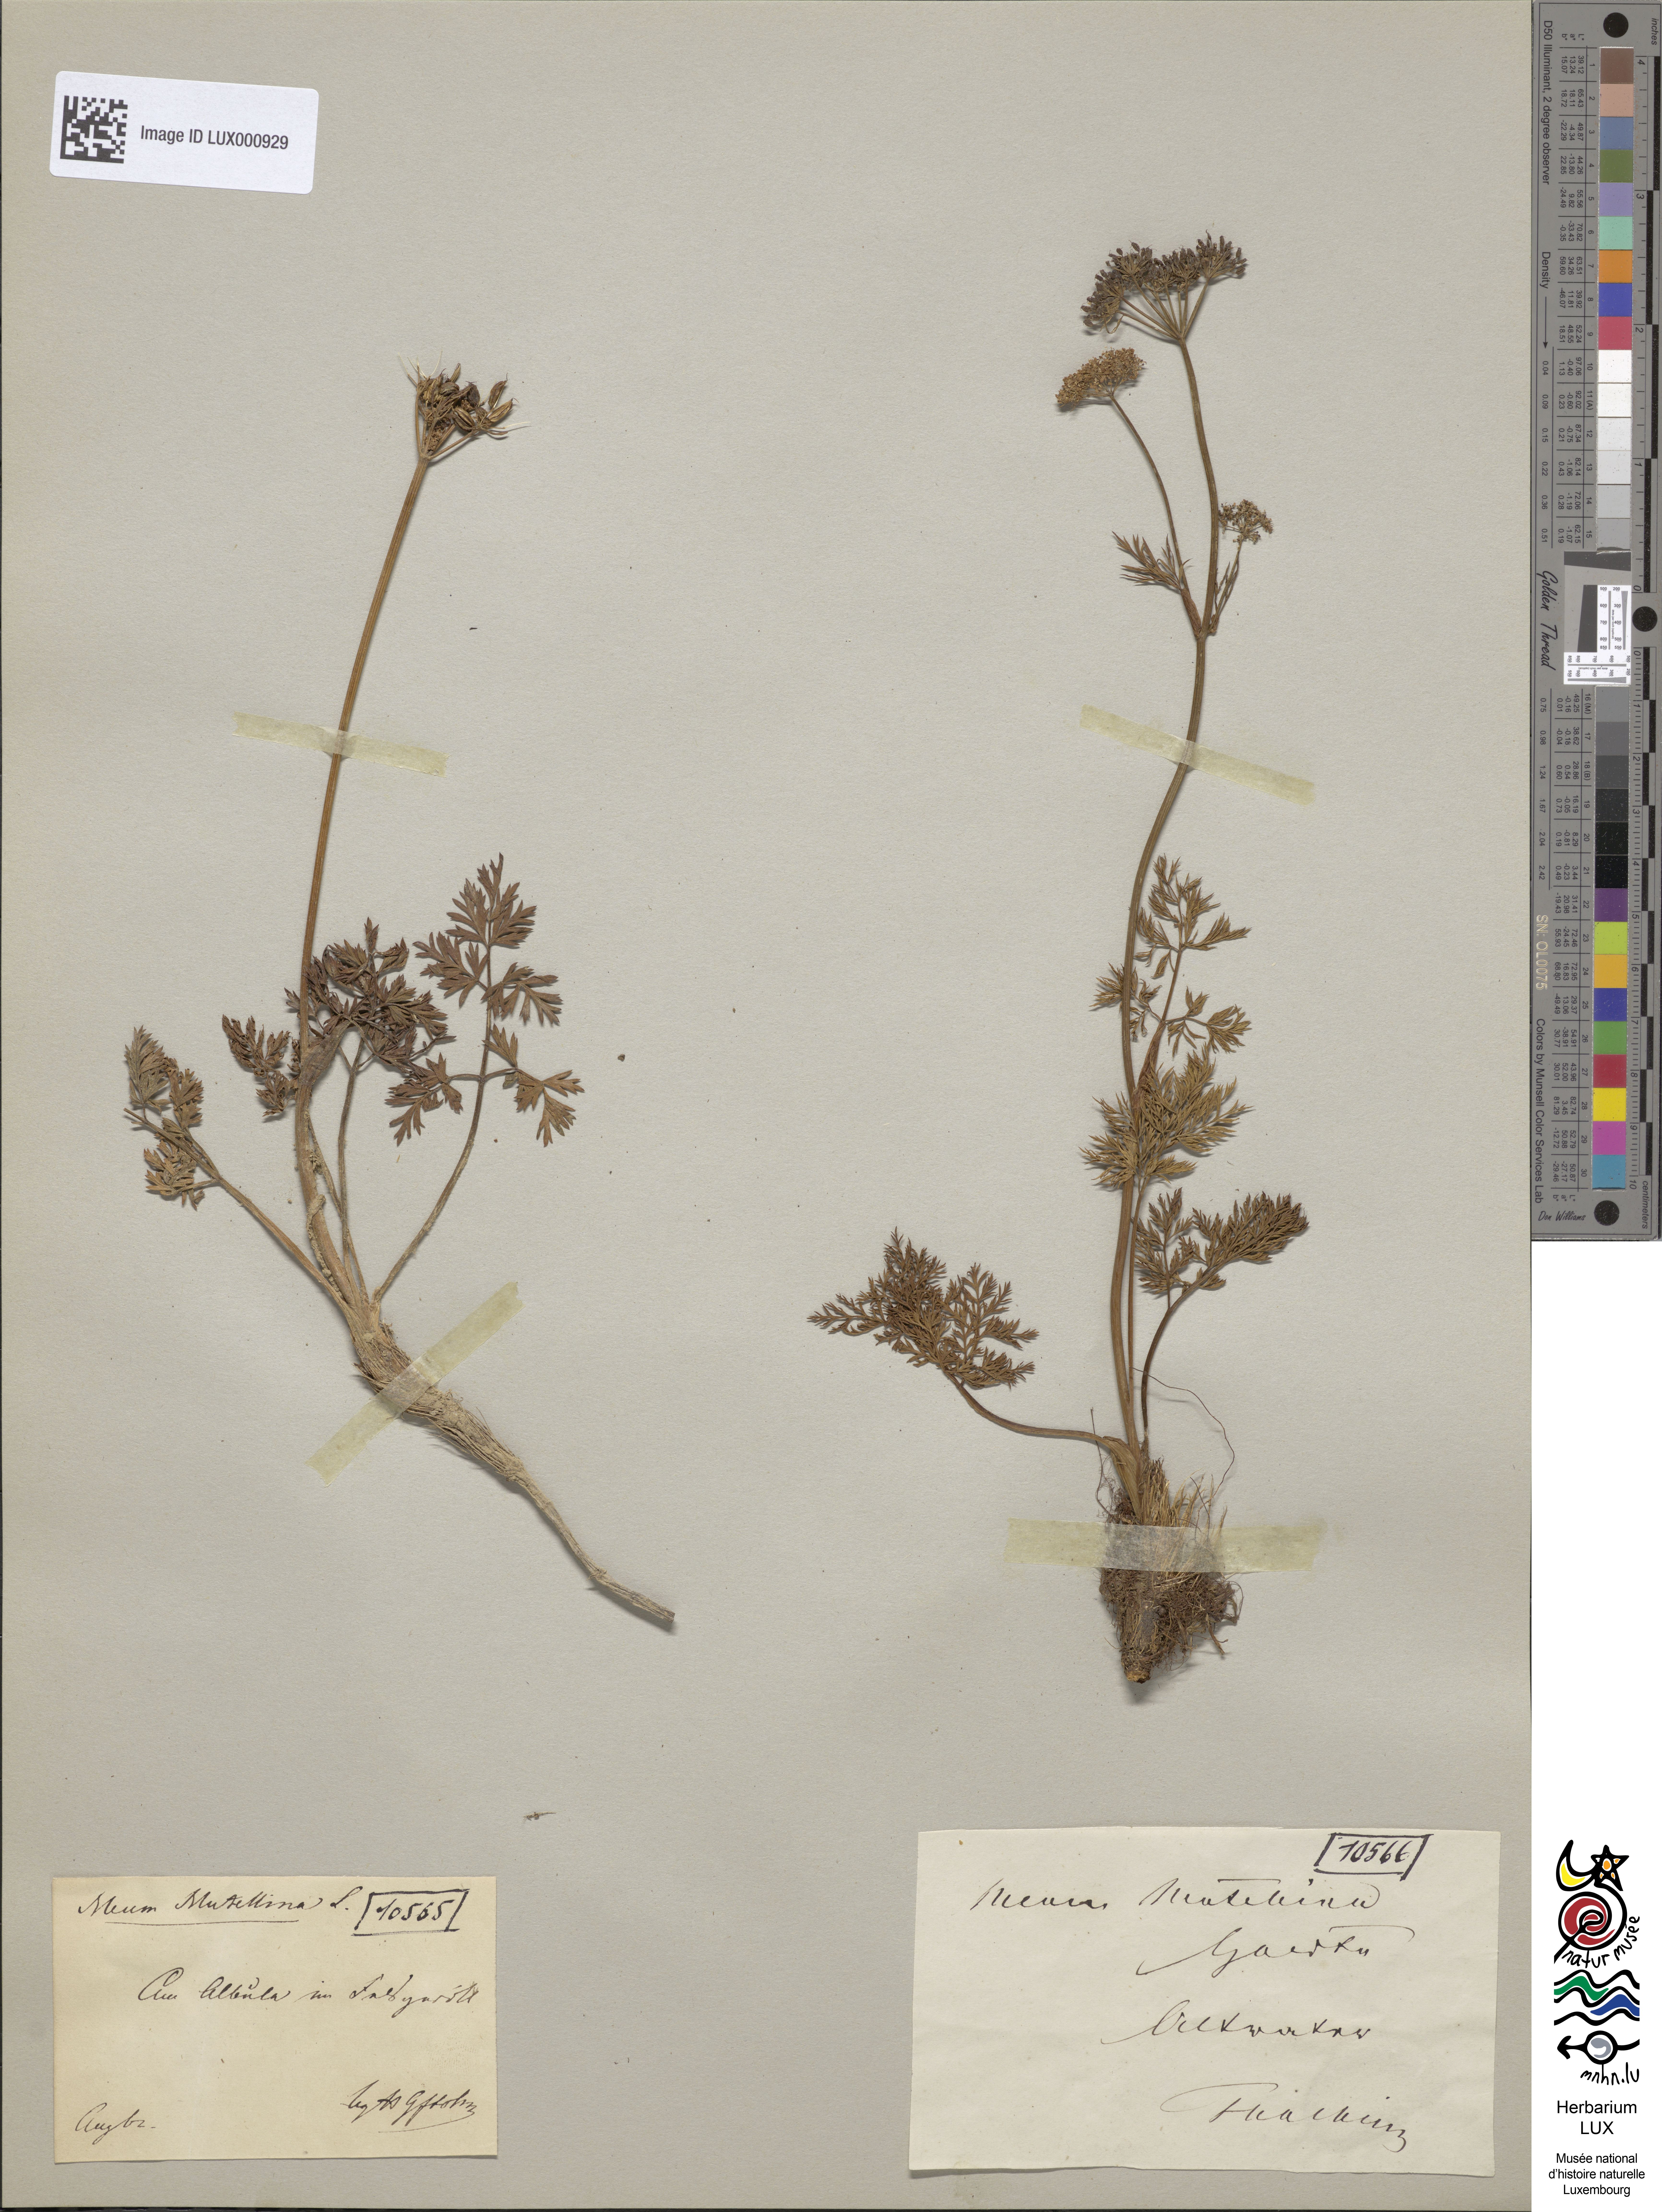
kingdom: Plantae
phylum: Tracheophyta
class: Magnoliopsida
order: Apiales
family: Apiaceae
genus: Mutellina
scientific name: Mutellina adonidifolia
